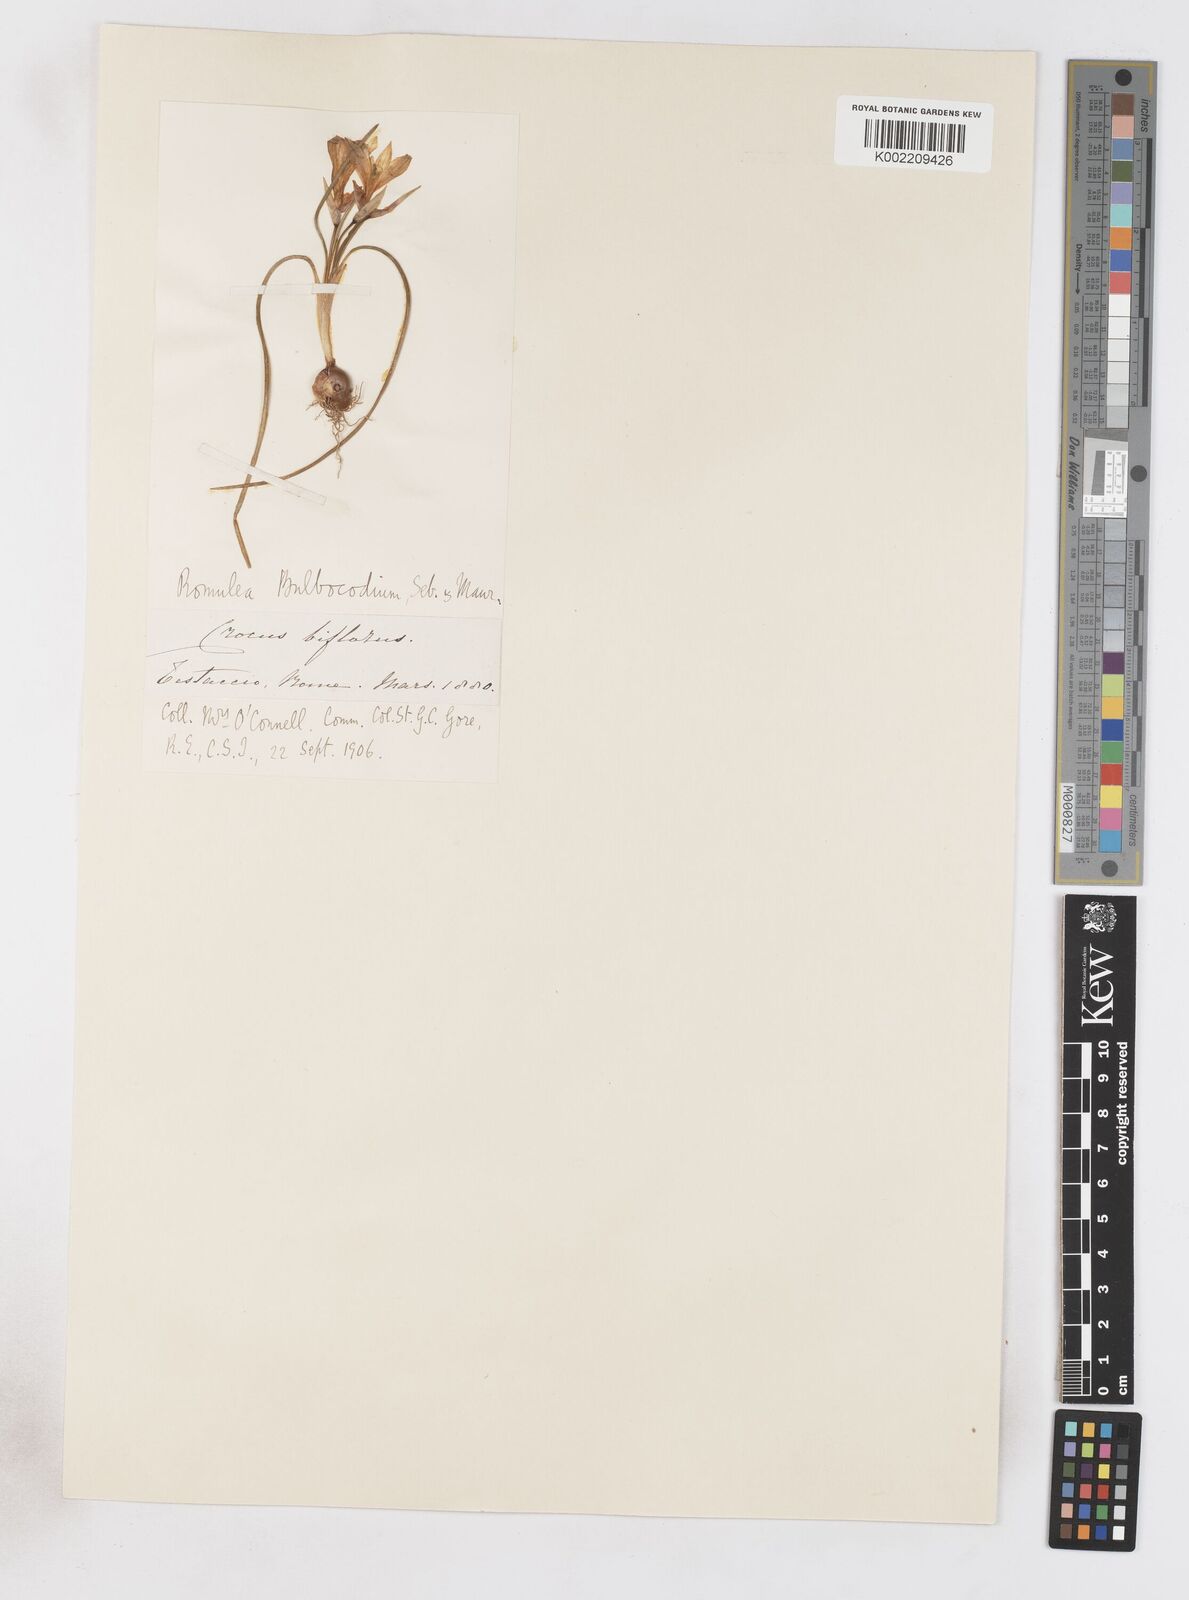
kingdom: Plantae
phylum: Tracheophyta
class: Liliopsida
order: Asparagales
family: Iridaceae
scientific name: Iridaceae
